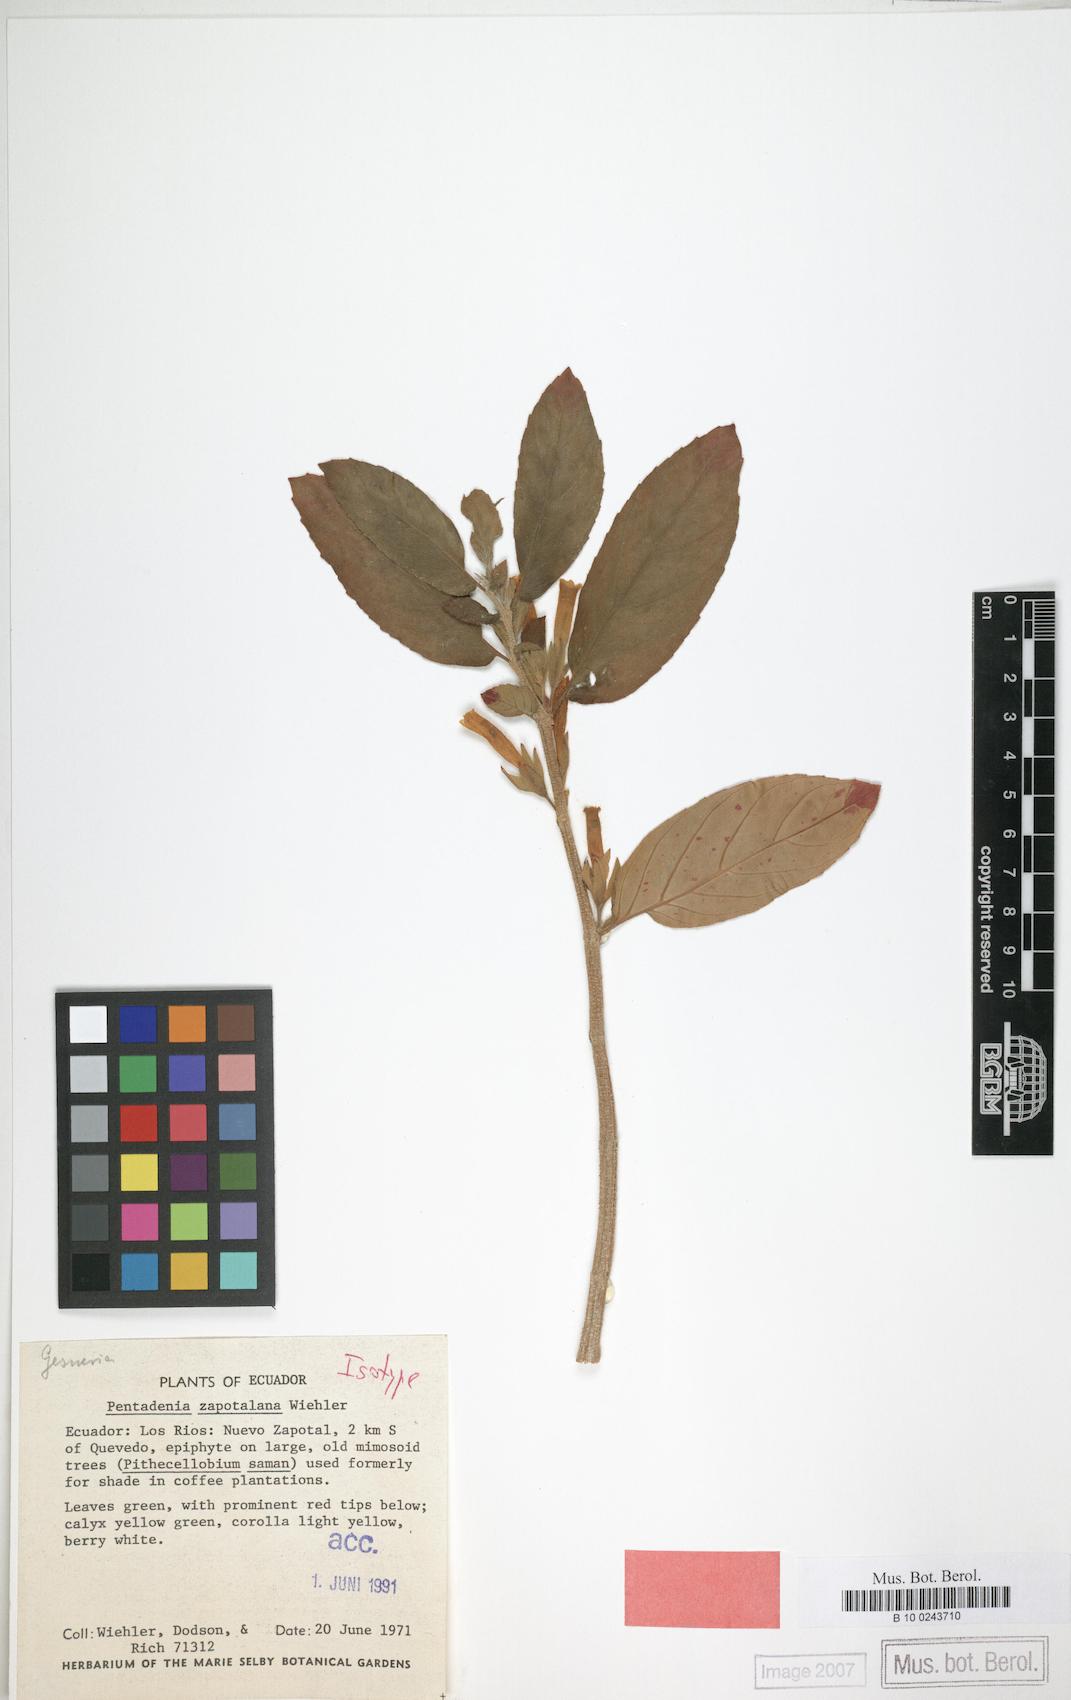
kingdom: Plantae
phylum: Tracheophyta
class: Magnoliopsida
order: Lamiales
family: Gesneriaceae
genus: Columnea
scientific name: Columnea spathulata
